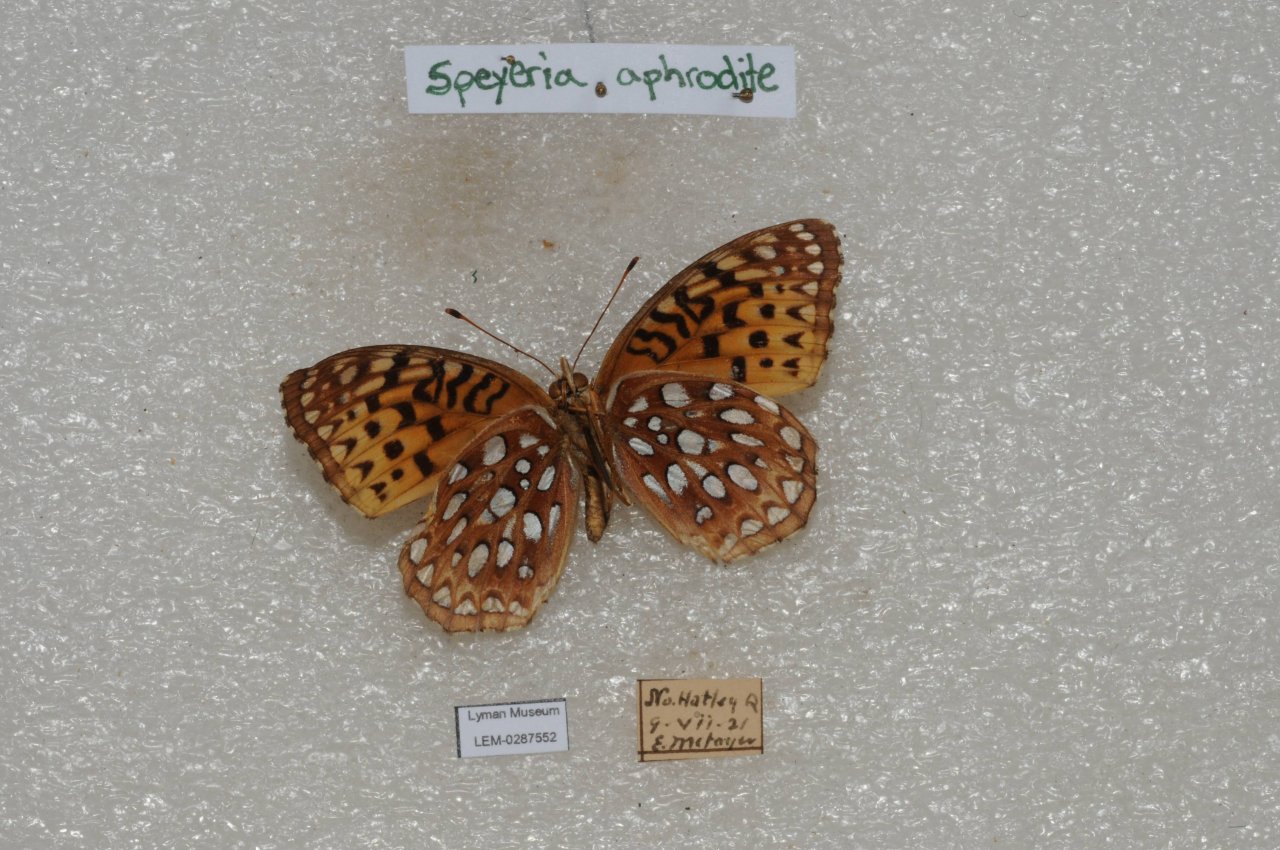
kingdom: Animalia
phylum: Arthropoda
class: Insecta
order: Lepidoptera
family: Nymphalidae
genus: Speyeria
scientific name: Speyeria aphrodite
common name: Aphrodite Fritillary
